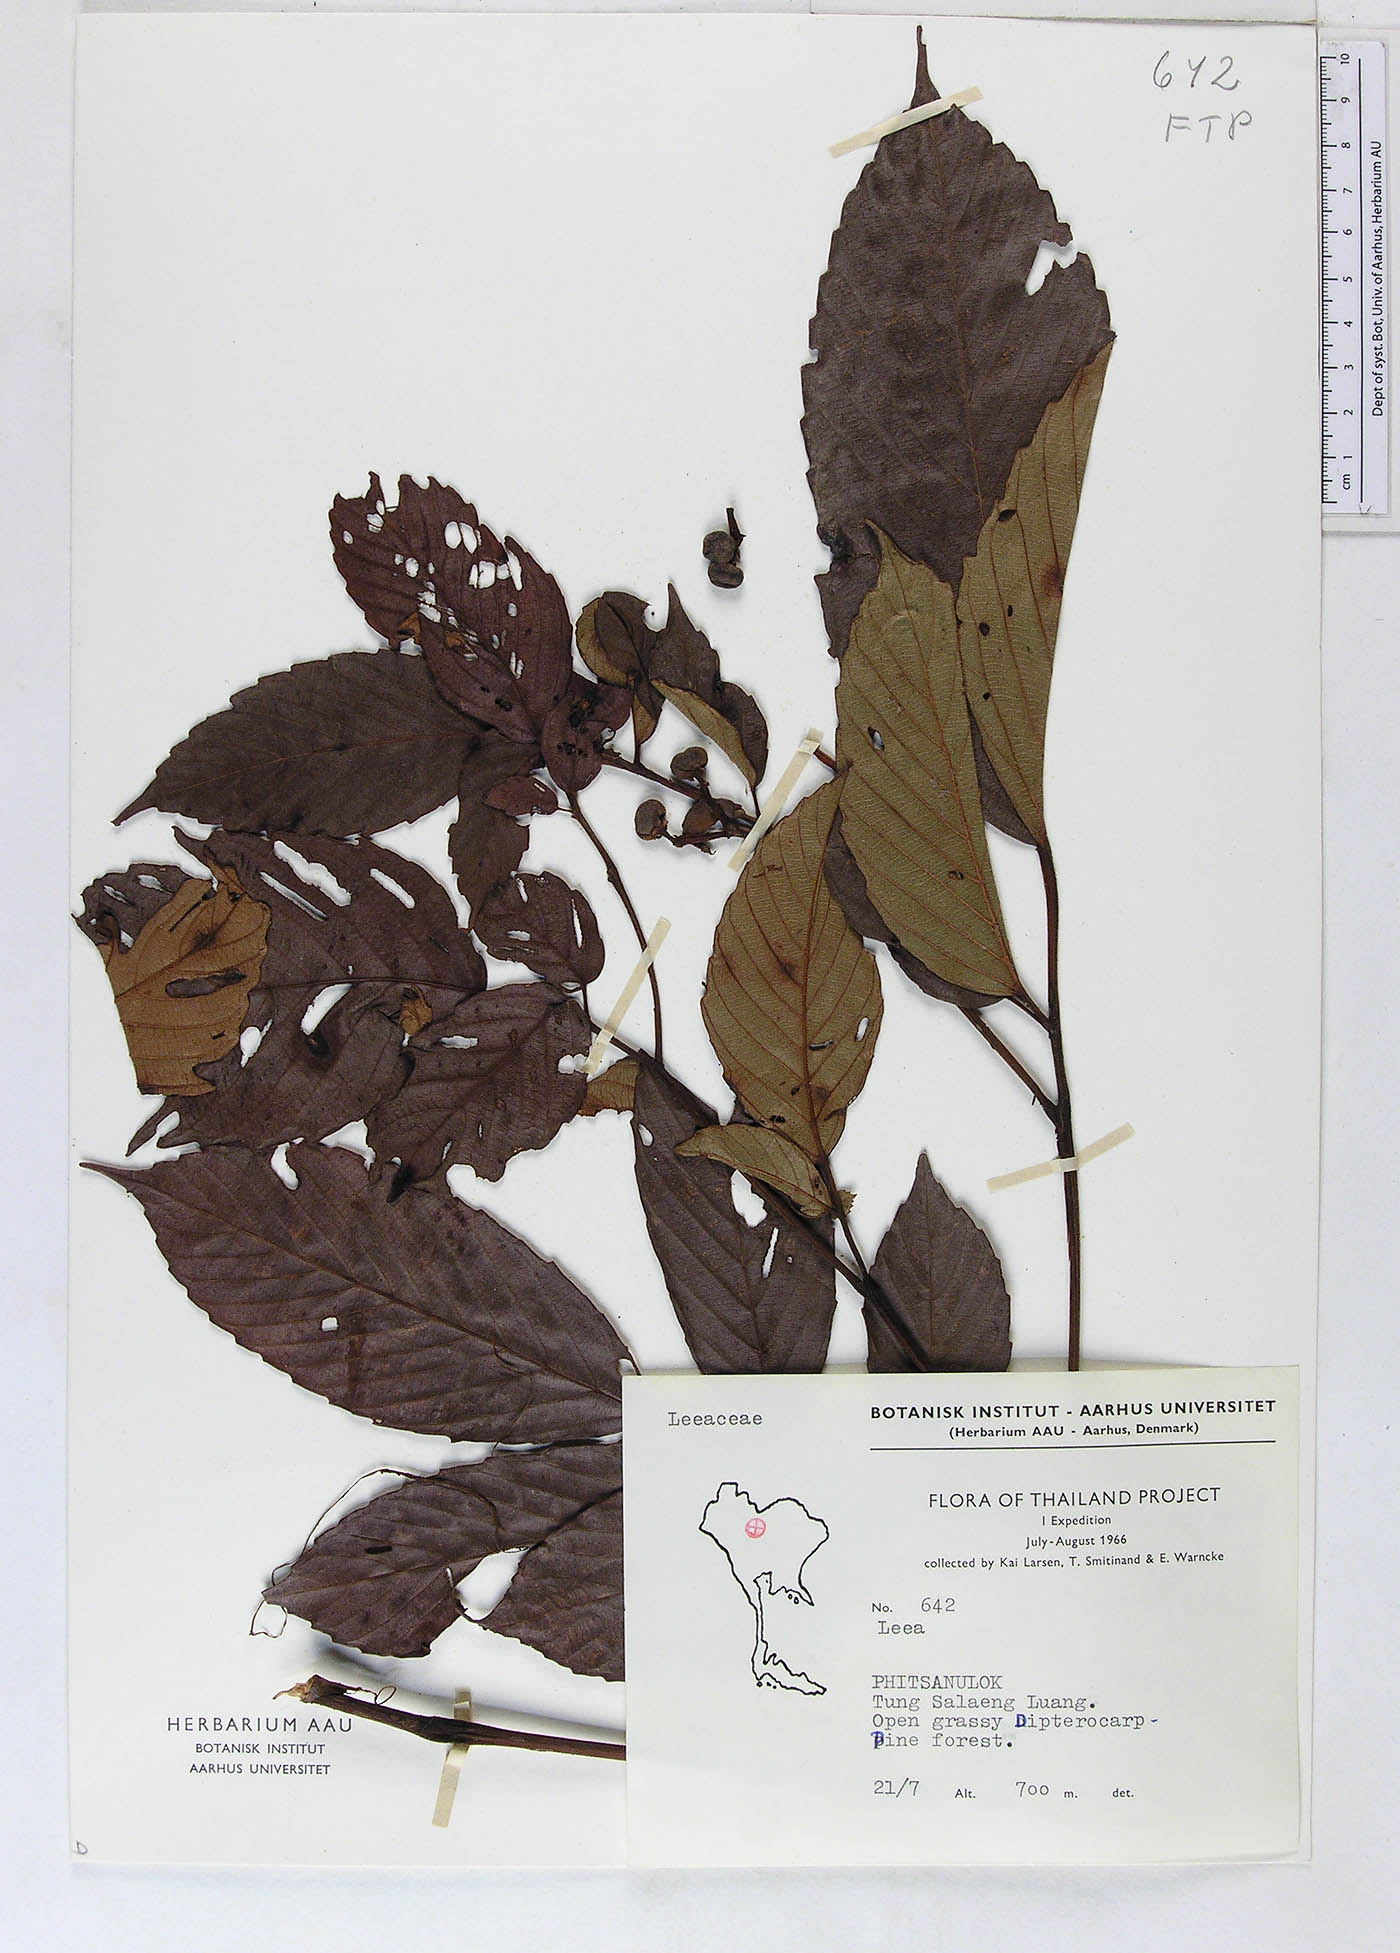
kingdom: Plantae
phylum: Tracheophyta
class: Magnoliopsida
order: Vitales
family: Vitaceae
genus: Leea
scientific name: Leea asiatica
